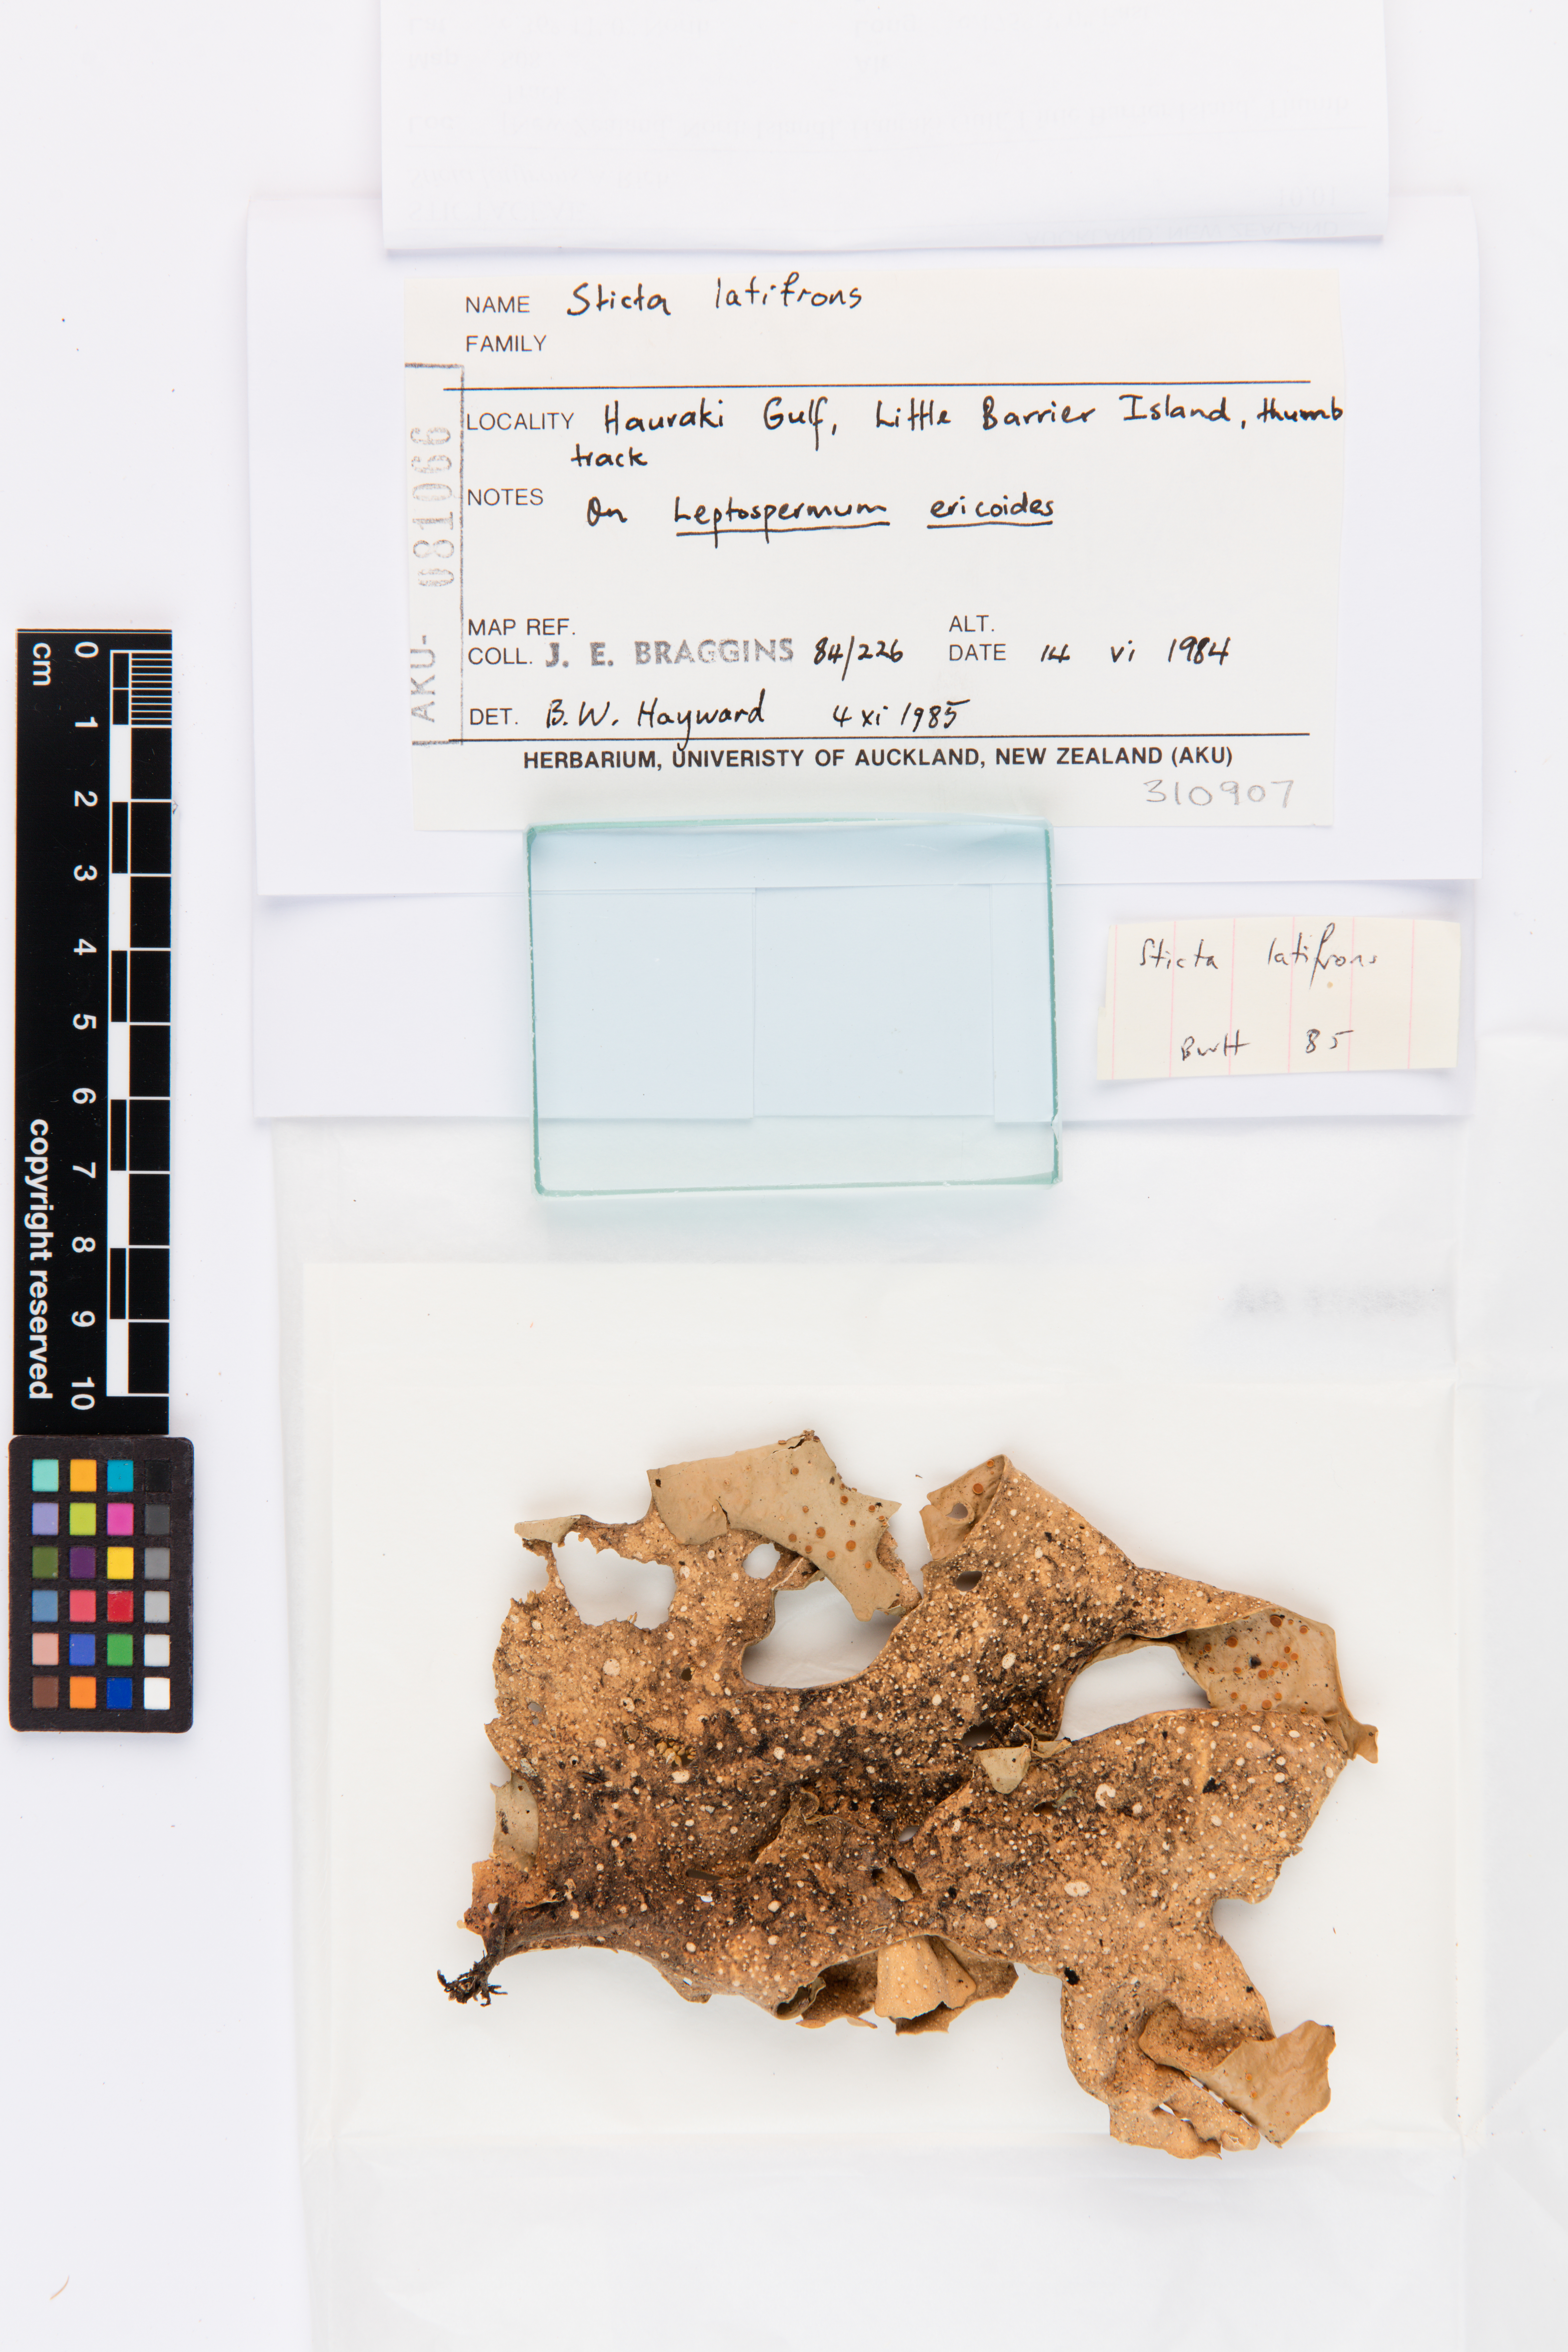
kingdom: Fungi
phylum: Ascomycota
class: Lecanoromycetes
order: Peltigerales
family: Lobariaceae
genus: Sticta
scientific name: Sticta latifrons
